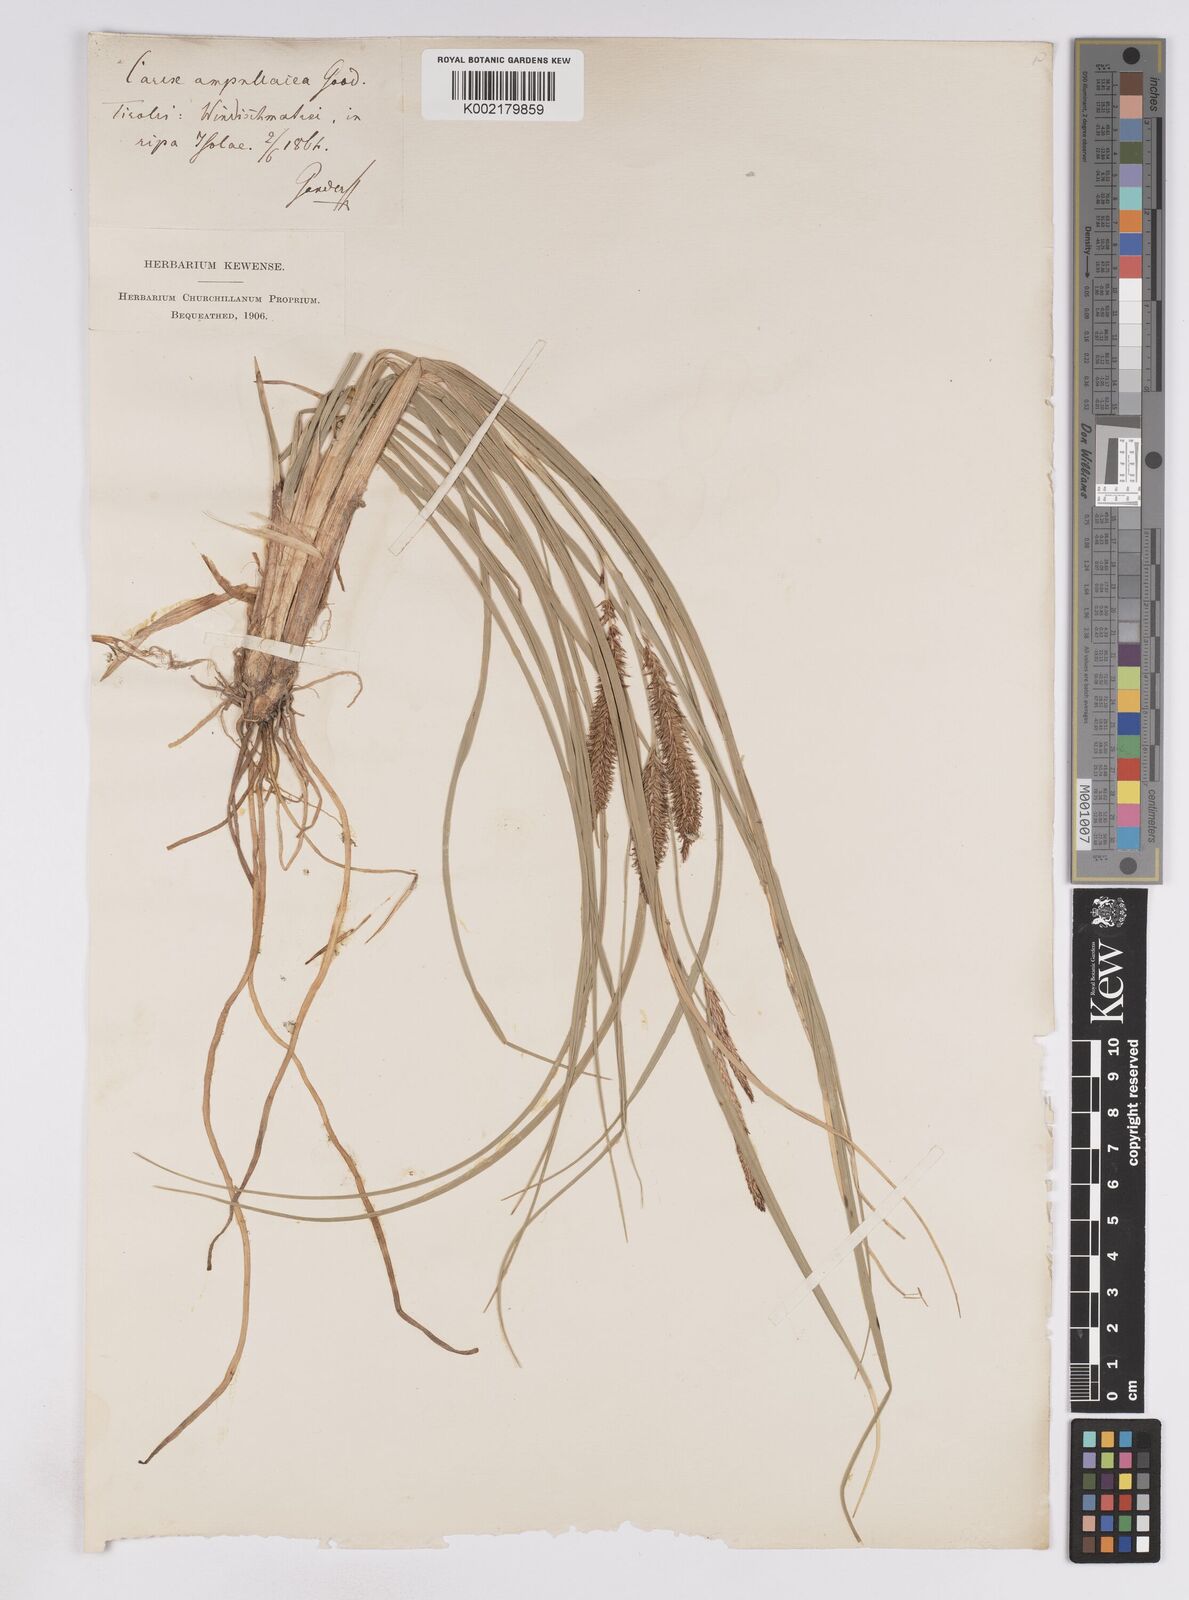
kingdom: Plantae
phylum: Tracheophyta
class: Liliopsida
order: Poales
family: Cyperaceae
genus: Carex
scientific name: Carex rostrata
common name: Bottle sedge
